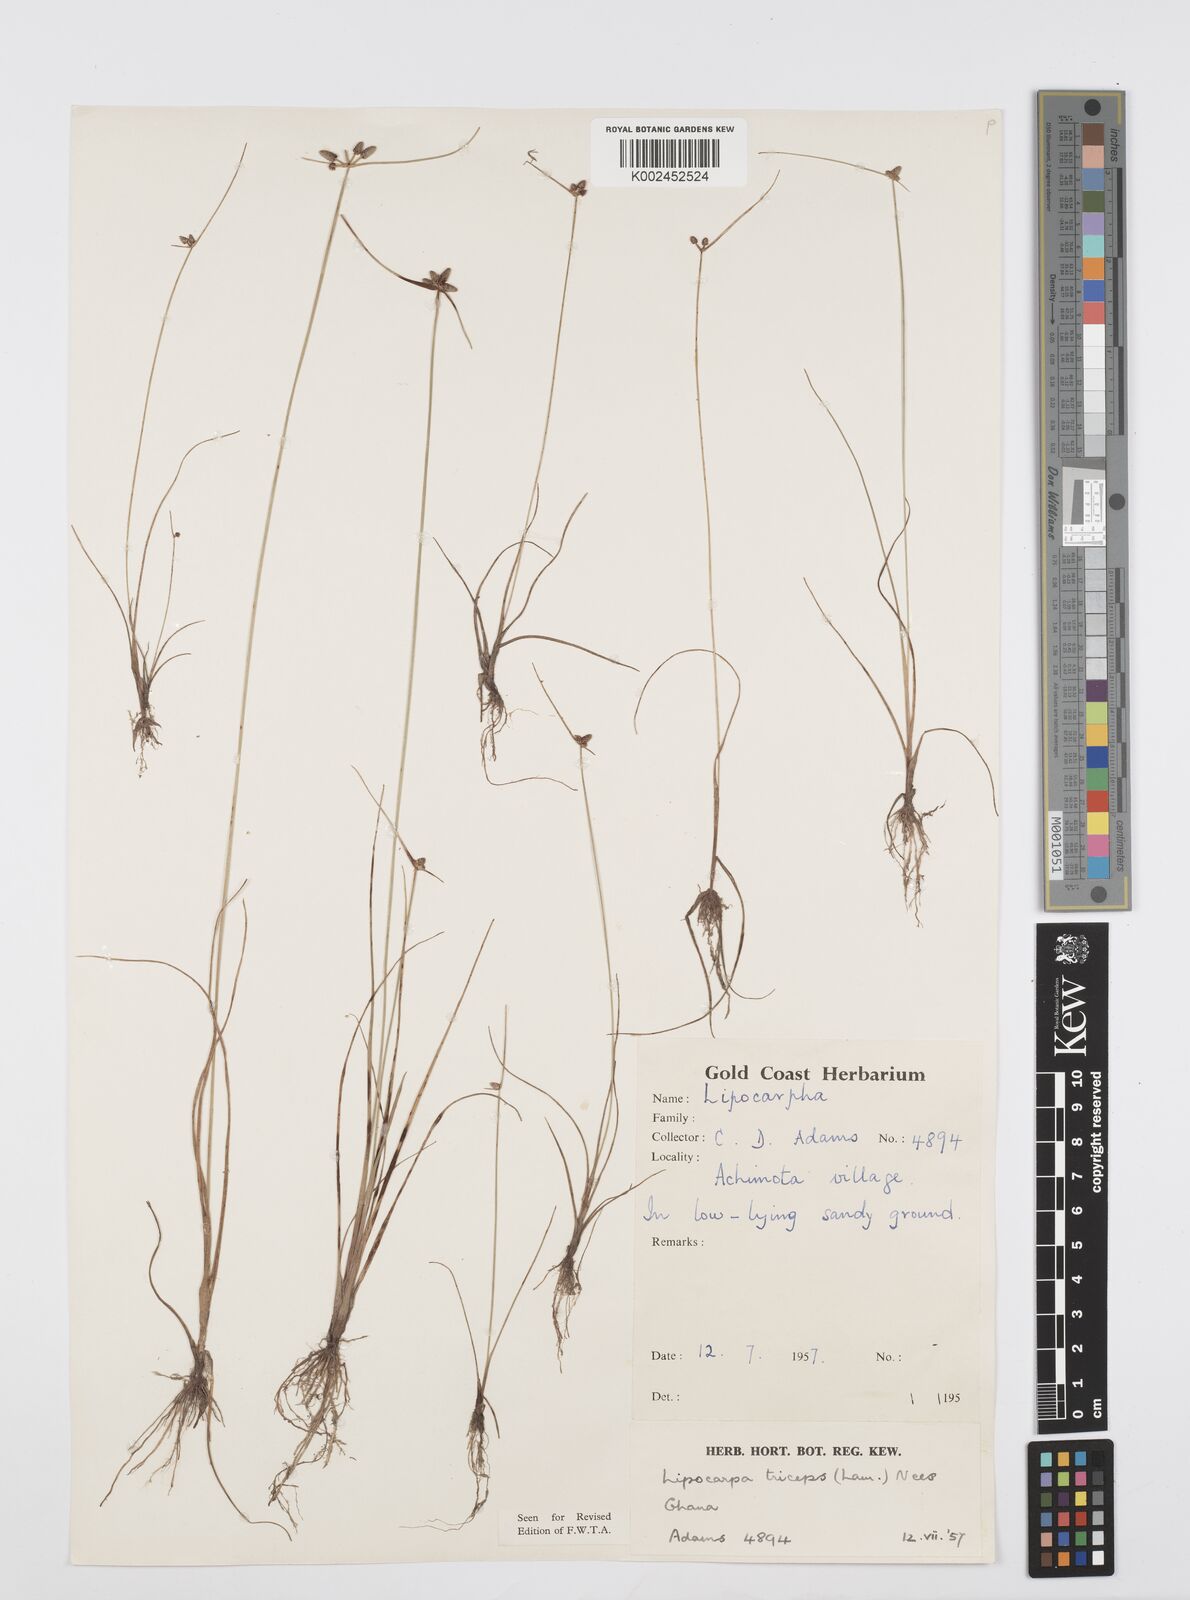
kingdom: Plantae
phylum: Tracheophyta
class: Liliopsida
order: Poales
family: Cyperaceae
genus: Cyperus
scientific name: Cyperus filiformis
